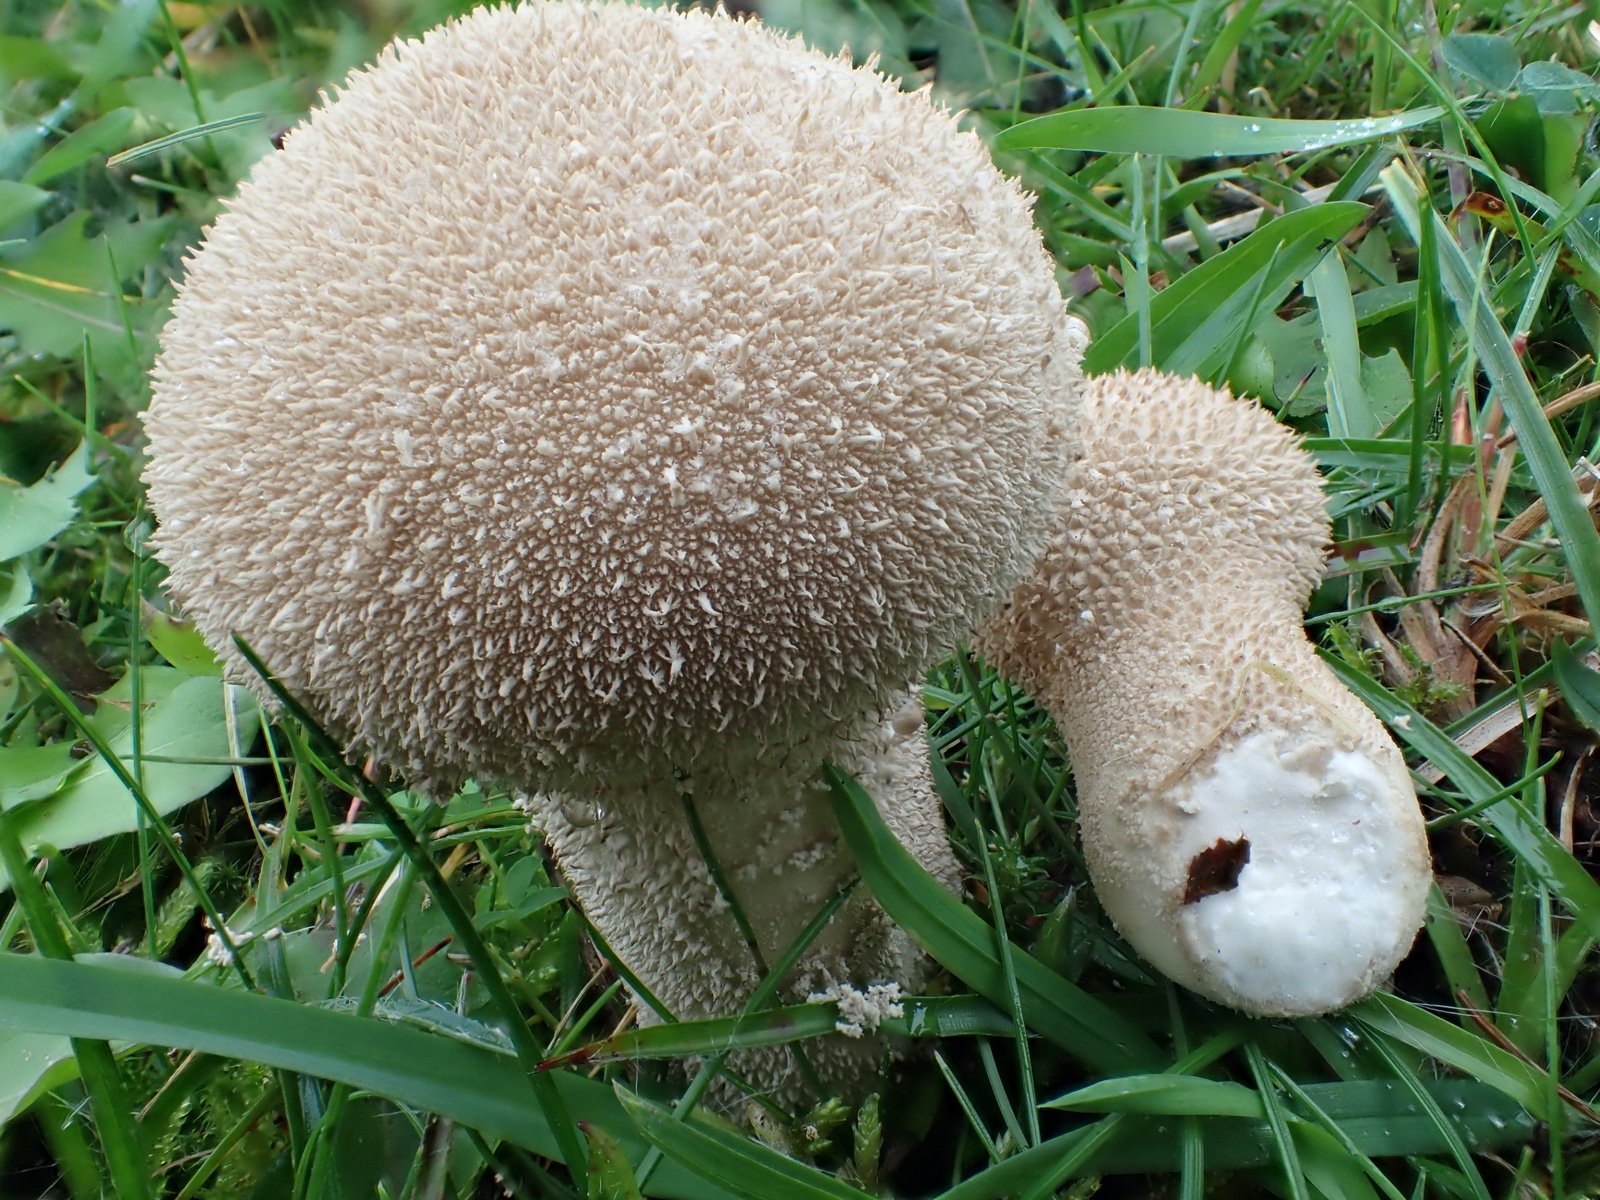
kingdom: Fungi
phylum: Basidiomycota
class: Agaricomycetes
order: Agaricales
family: Lycoperdaceae
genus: Lycoperdon
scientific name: Lycoperdon excipuliforme
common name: højstokket støvbold
